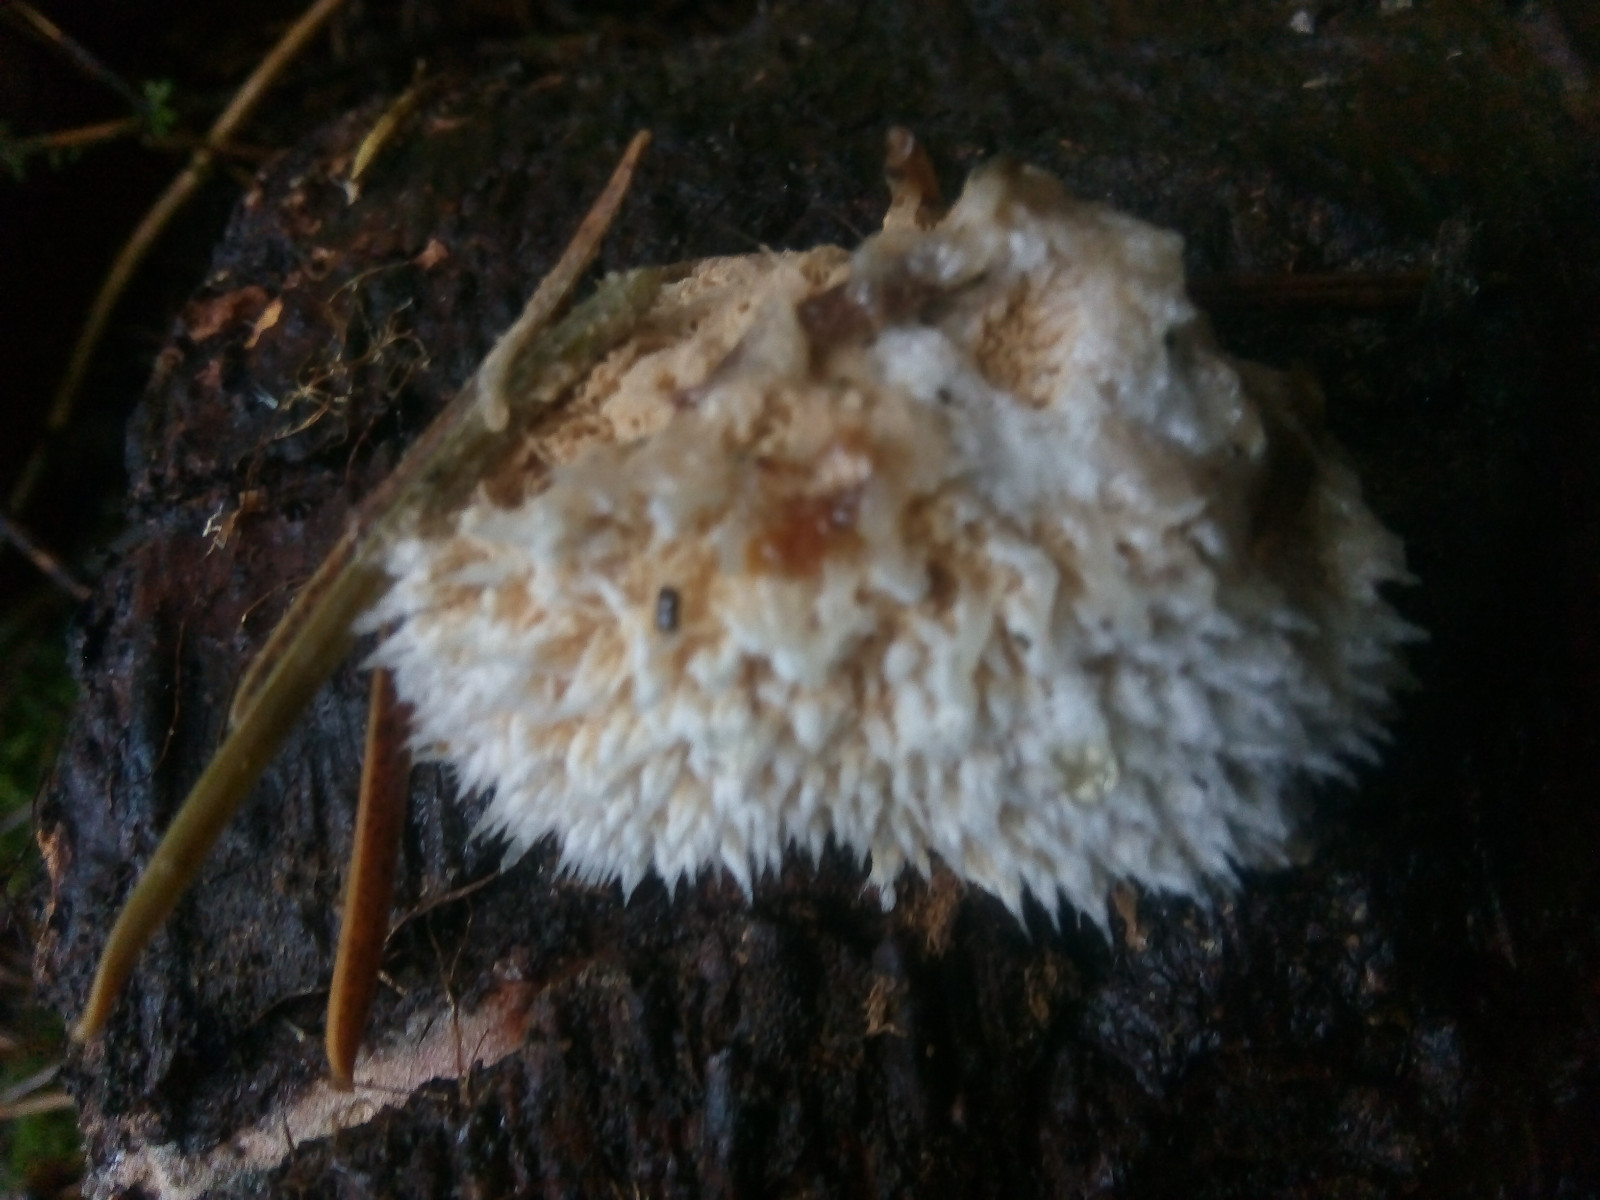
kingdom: Fungi
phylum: Basidiomycota
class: Agaricomycetes
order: Polyporales
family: Dacryobolaceae
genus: Postia
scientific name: Postia ptychogaster
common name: støvende kødporesvamp
